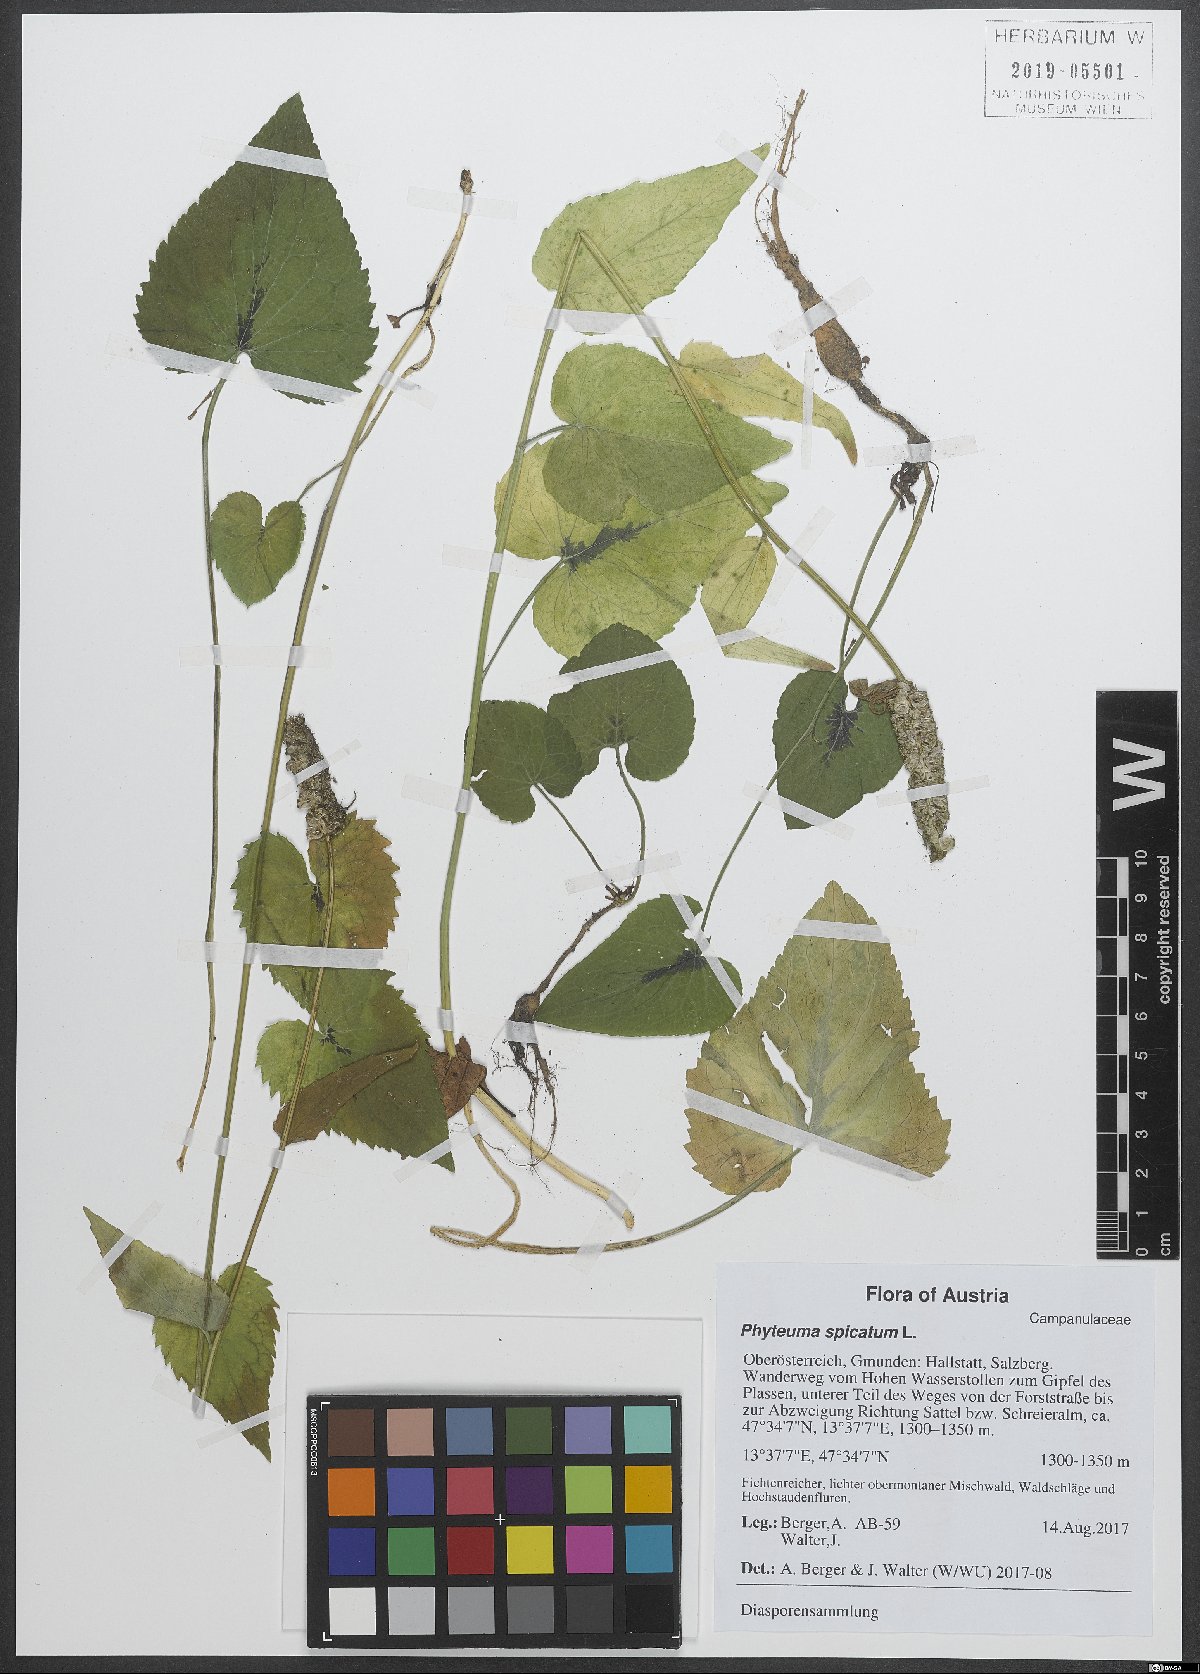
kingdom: Plantae
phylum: Tracheophyta
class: Magnoliopsida
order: Asterales
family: Campanulaceae
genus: Phyteuma
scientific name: Phyteuma spicatum
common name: Spiked rampion
